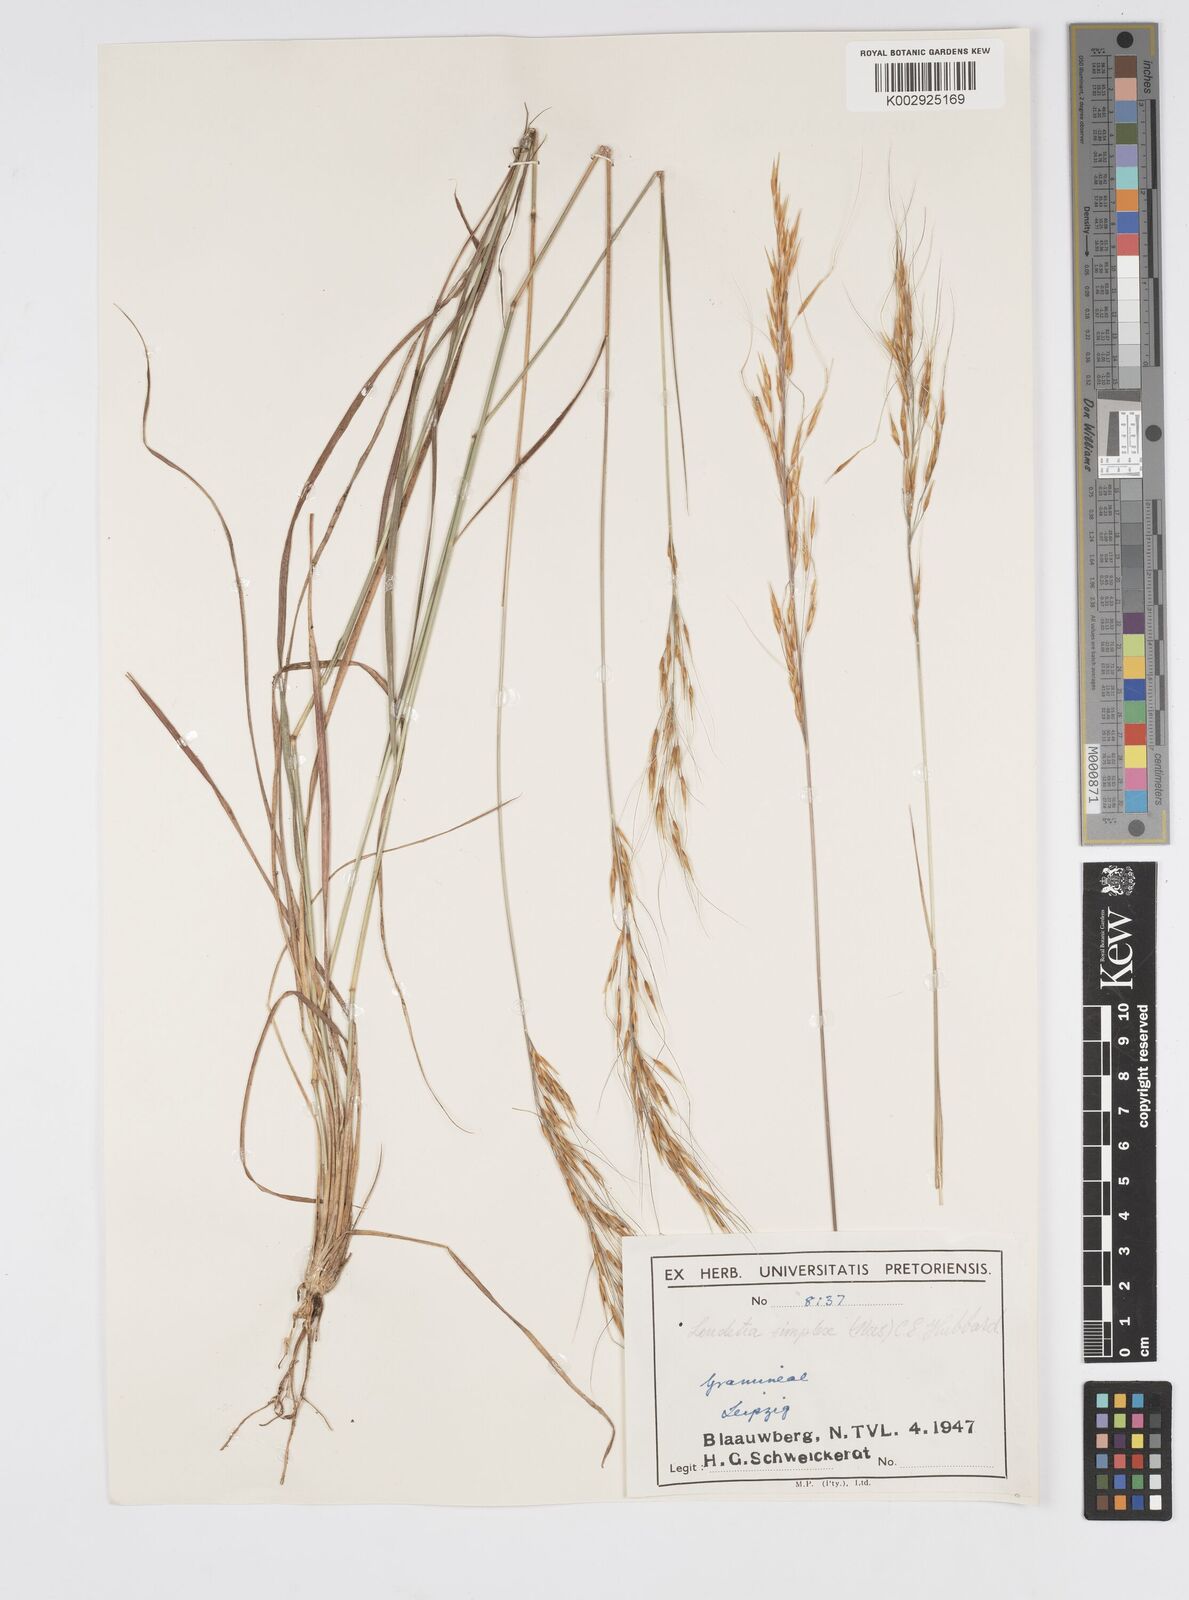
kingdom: Plantae
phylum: Tracheophyta
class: Liliopsida
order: Poales
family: Poaceae
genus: Loudetia
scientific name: Loudetia simplex
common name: Common russet grass
